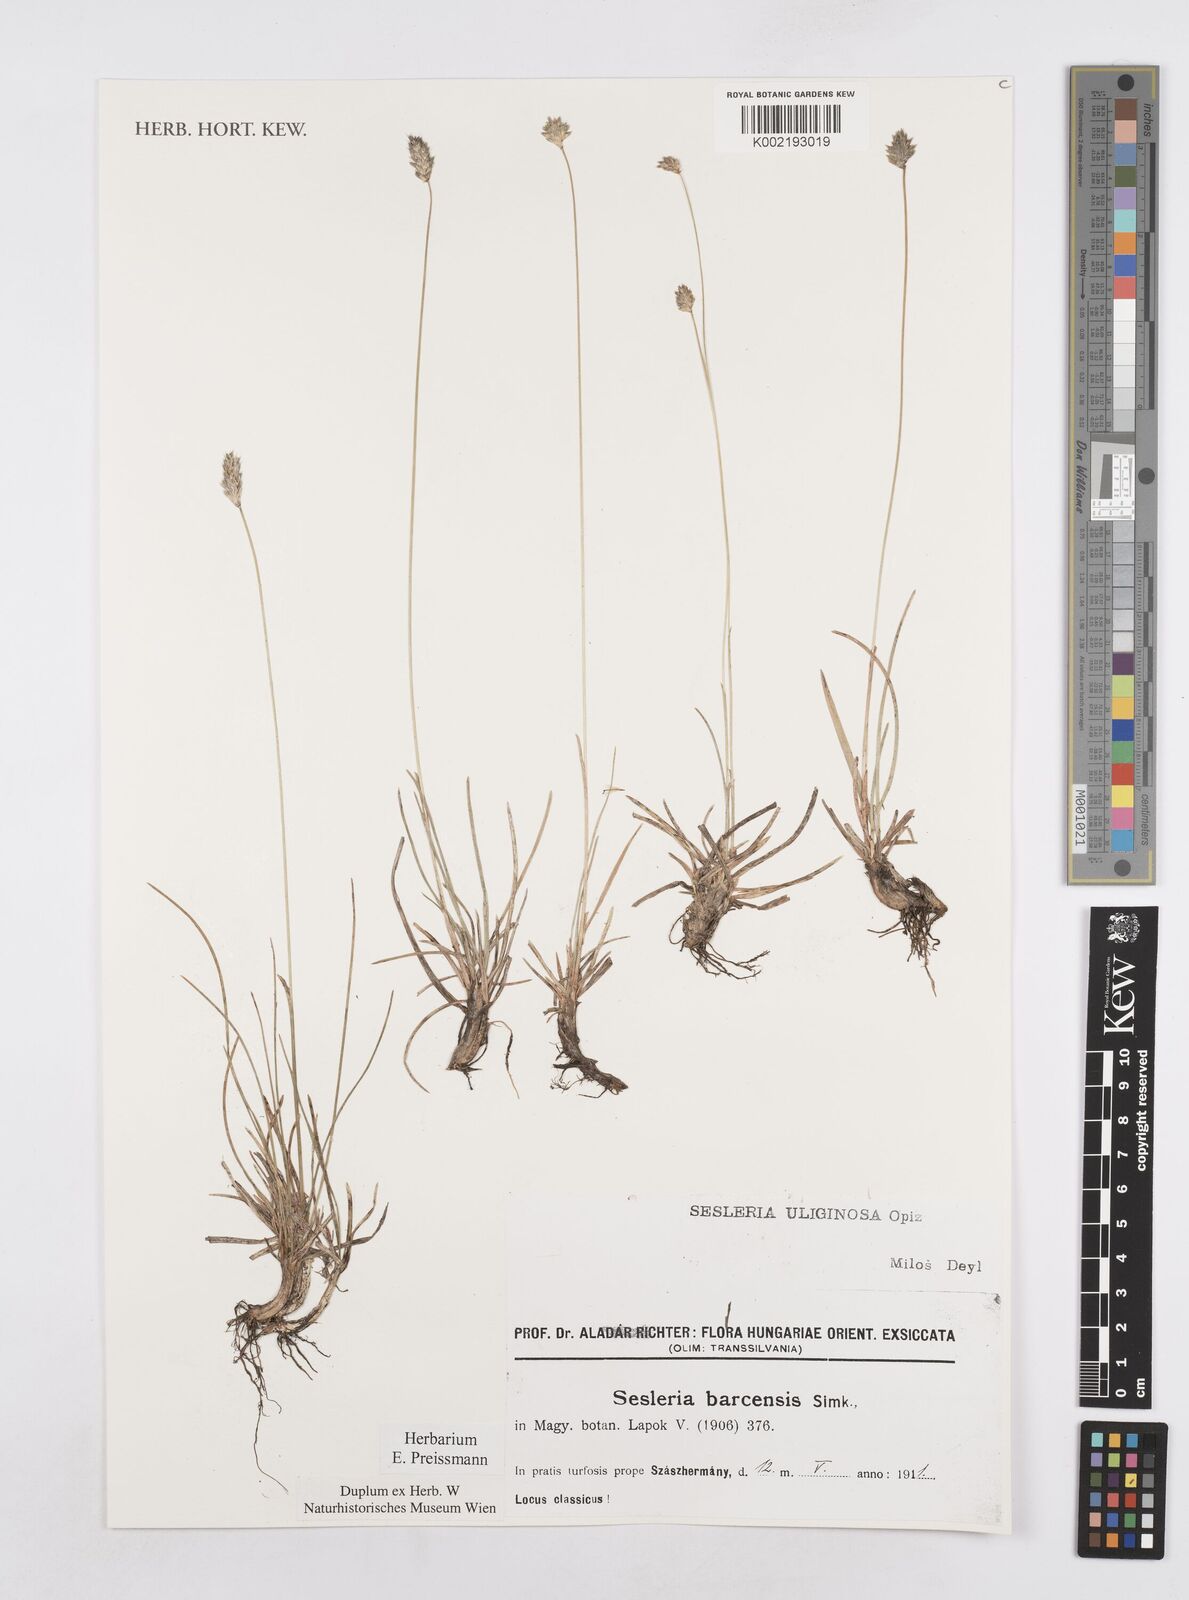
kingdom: Plantae
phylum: Tracheophyta
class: Liliopsida
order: Poales
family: Poaceae
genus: Sesleria
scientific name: Sesleria caerulea
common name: Blue moor-grass
